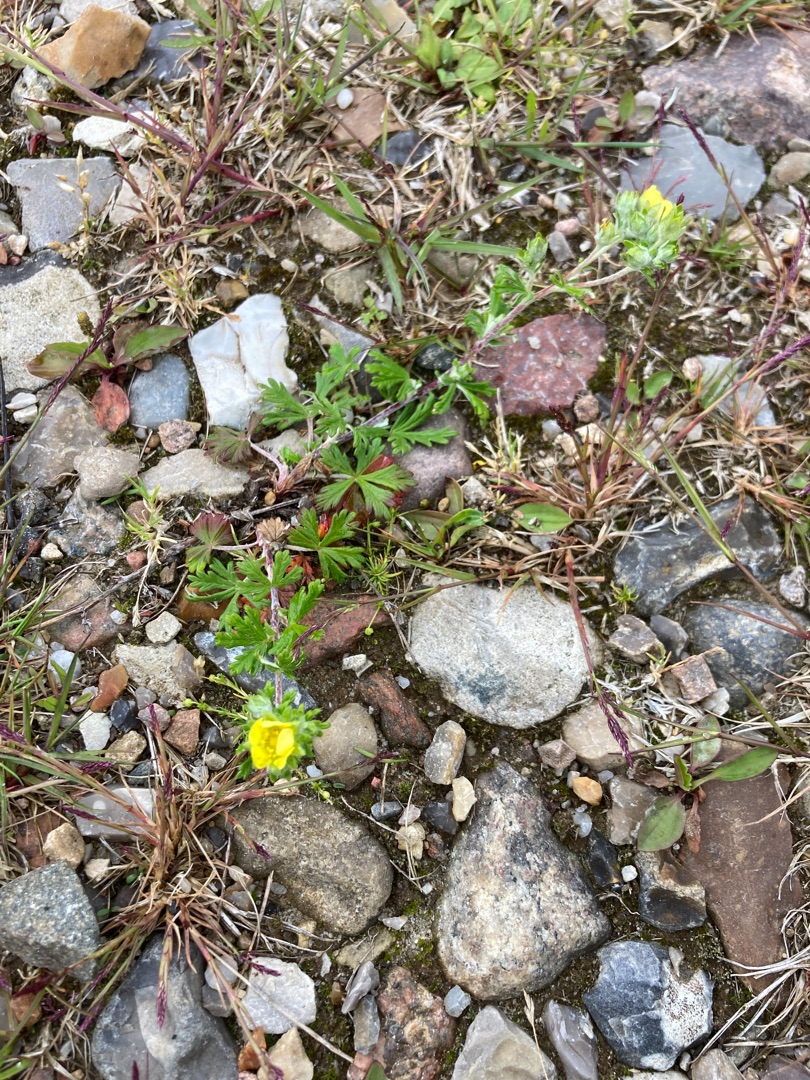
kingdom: Plantae
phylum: Tracheophyta
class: Magnoliopsida
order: Rosales
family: Rosaceae
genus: Potentilla
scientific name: Potentilla argentea
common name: Sølv-potentil
